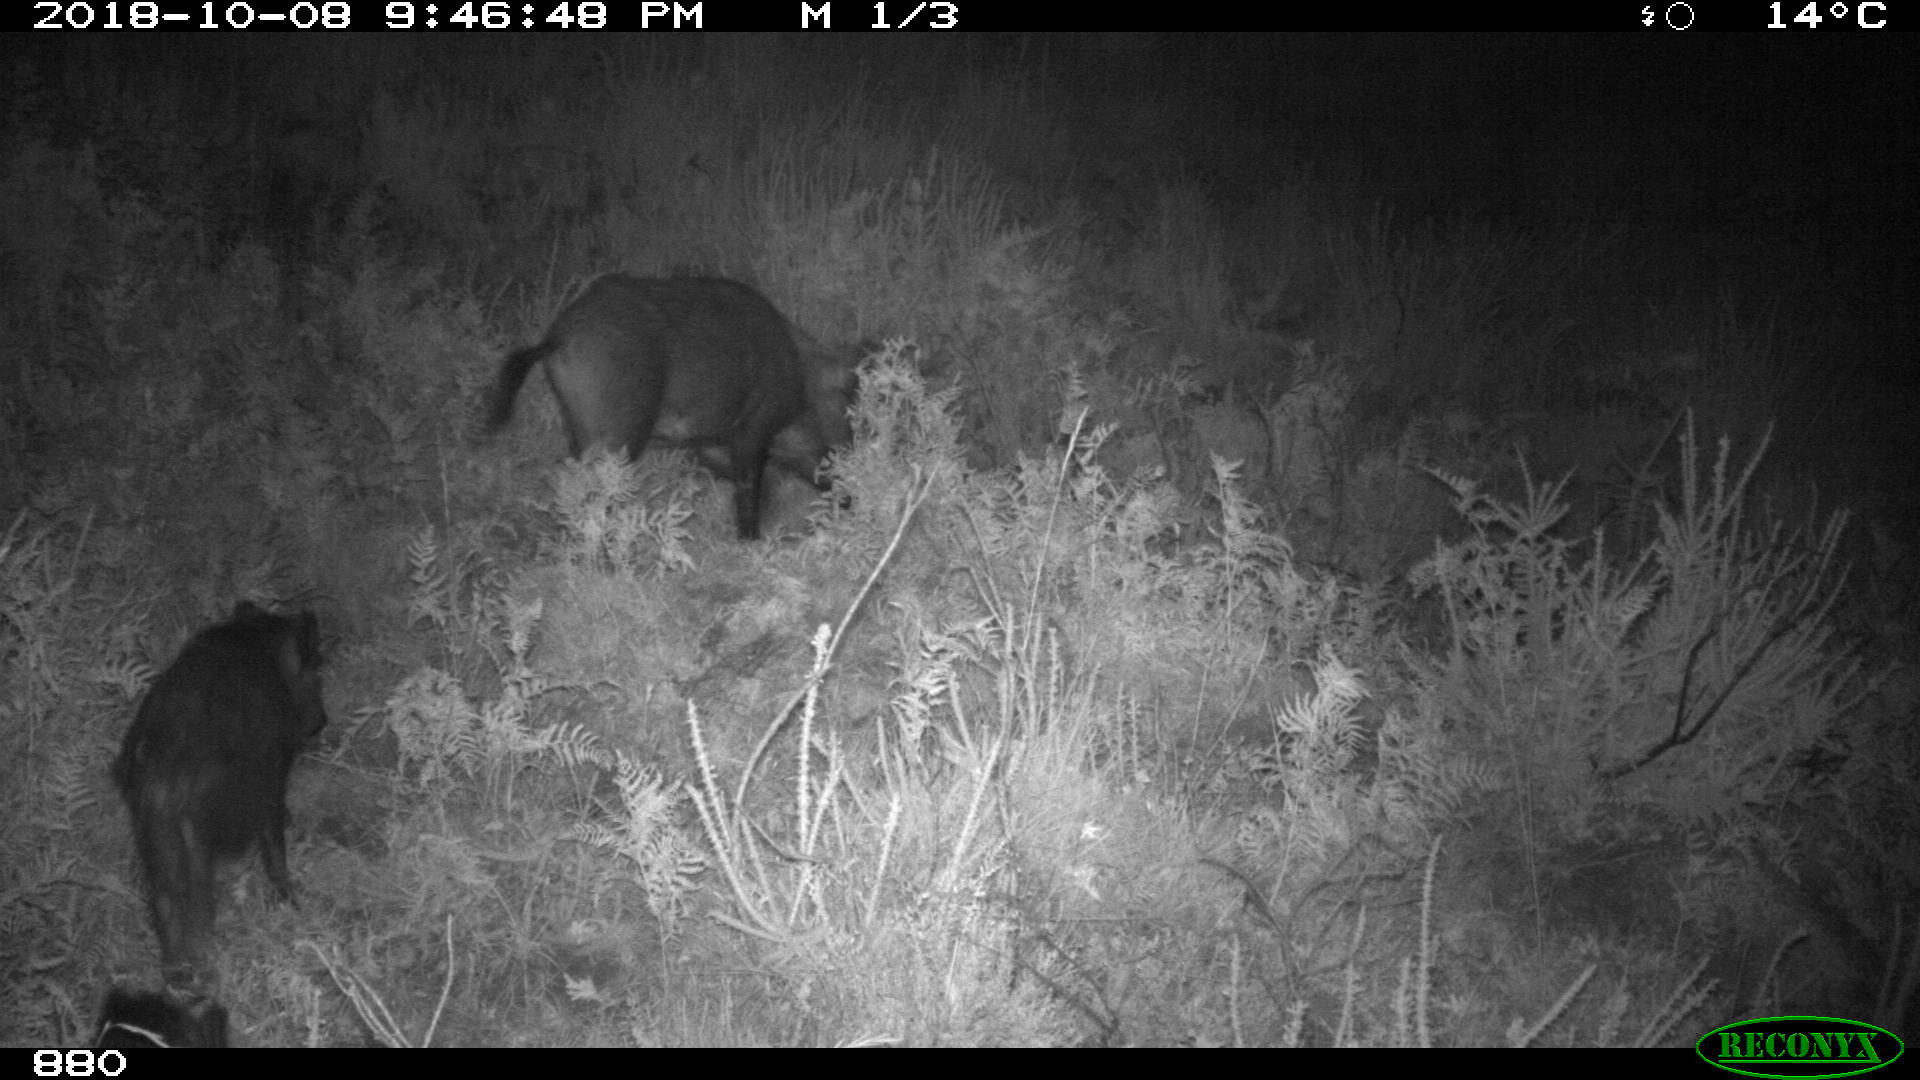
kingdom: Animalia
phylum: Chordata
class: Mammalia
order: Artiodactyla
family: Suidae
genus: Sus
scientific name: Sus scrofa
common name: Wild boar
